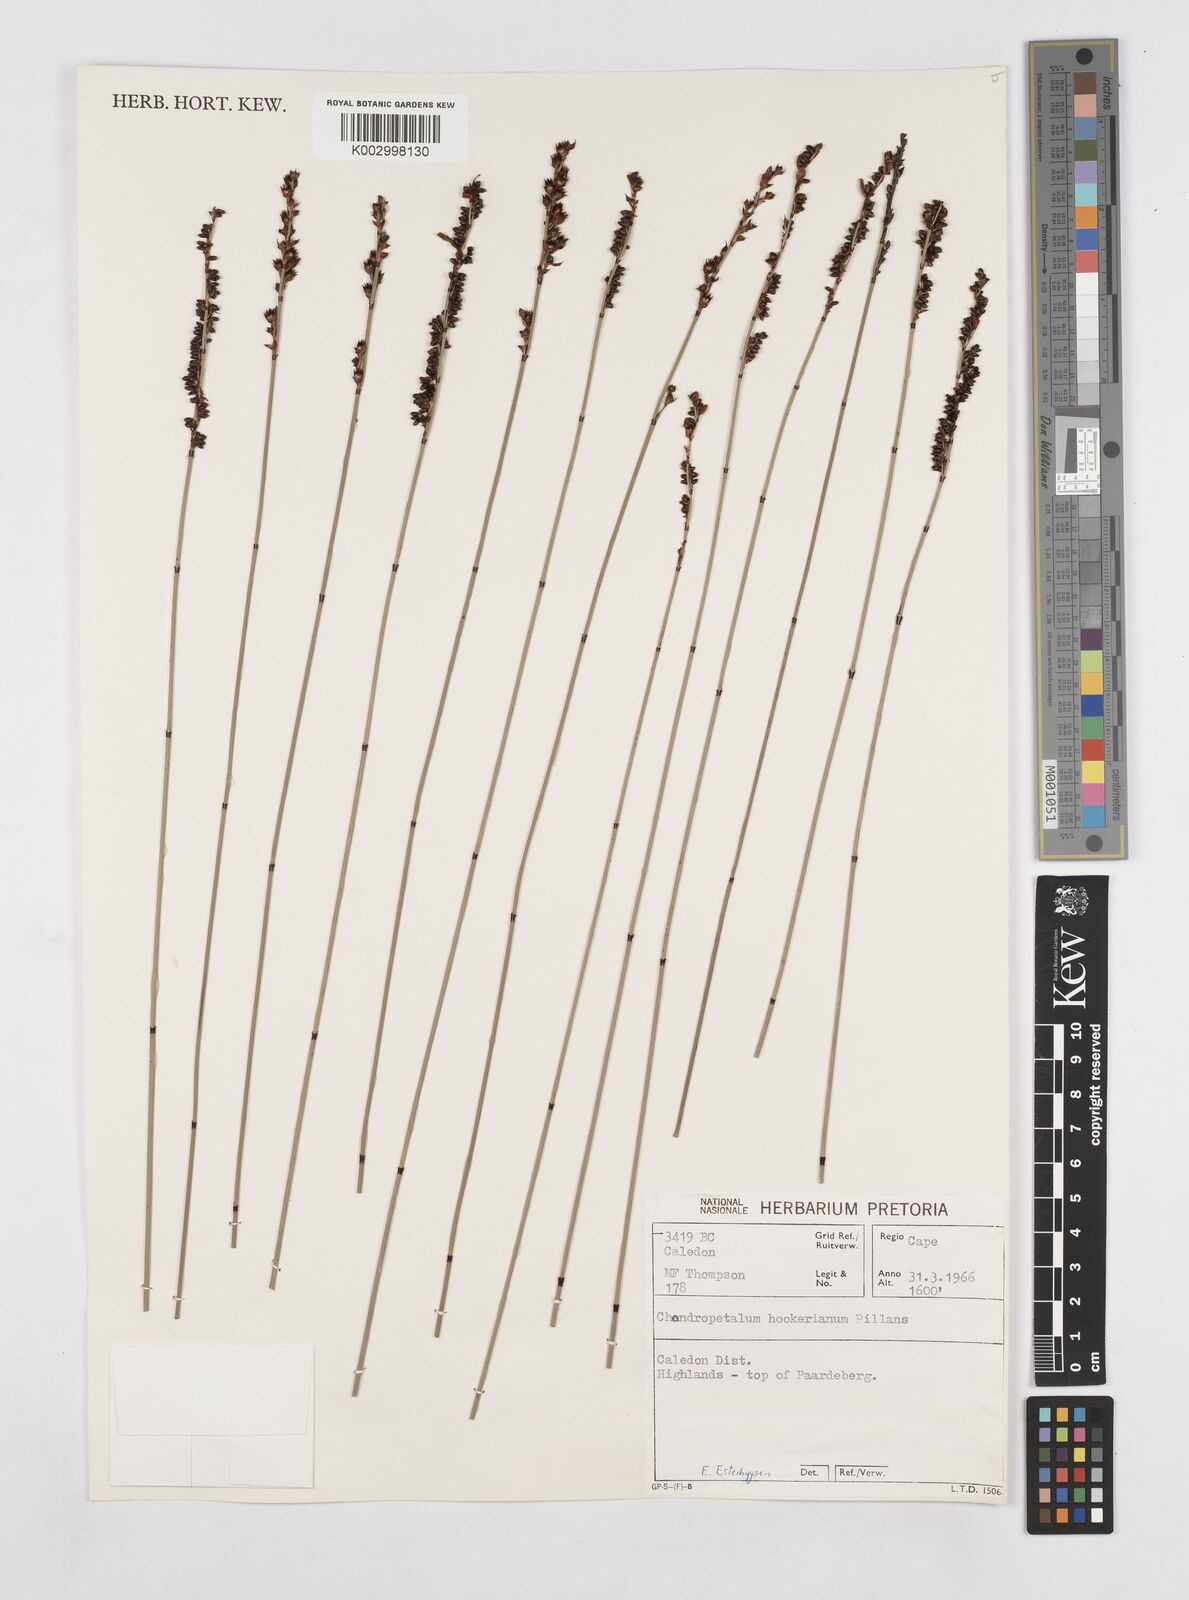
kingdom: Plantae
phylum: Tracheophyta
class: Liliopsida
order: Poales
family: Restionaceae
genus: Elegia
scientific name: Elegia ebracteata
